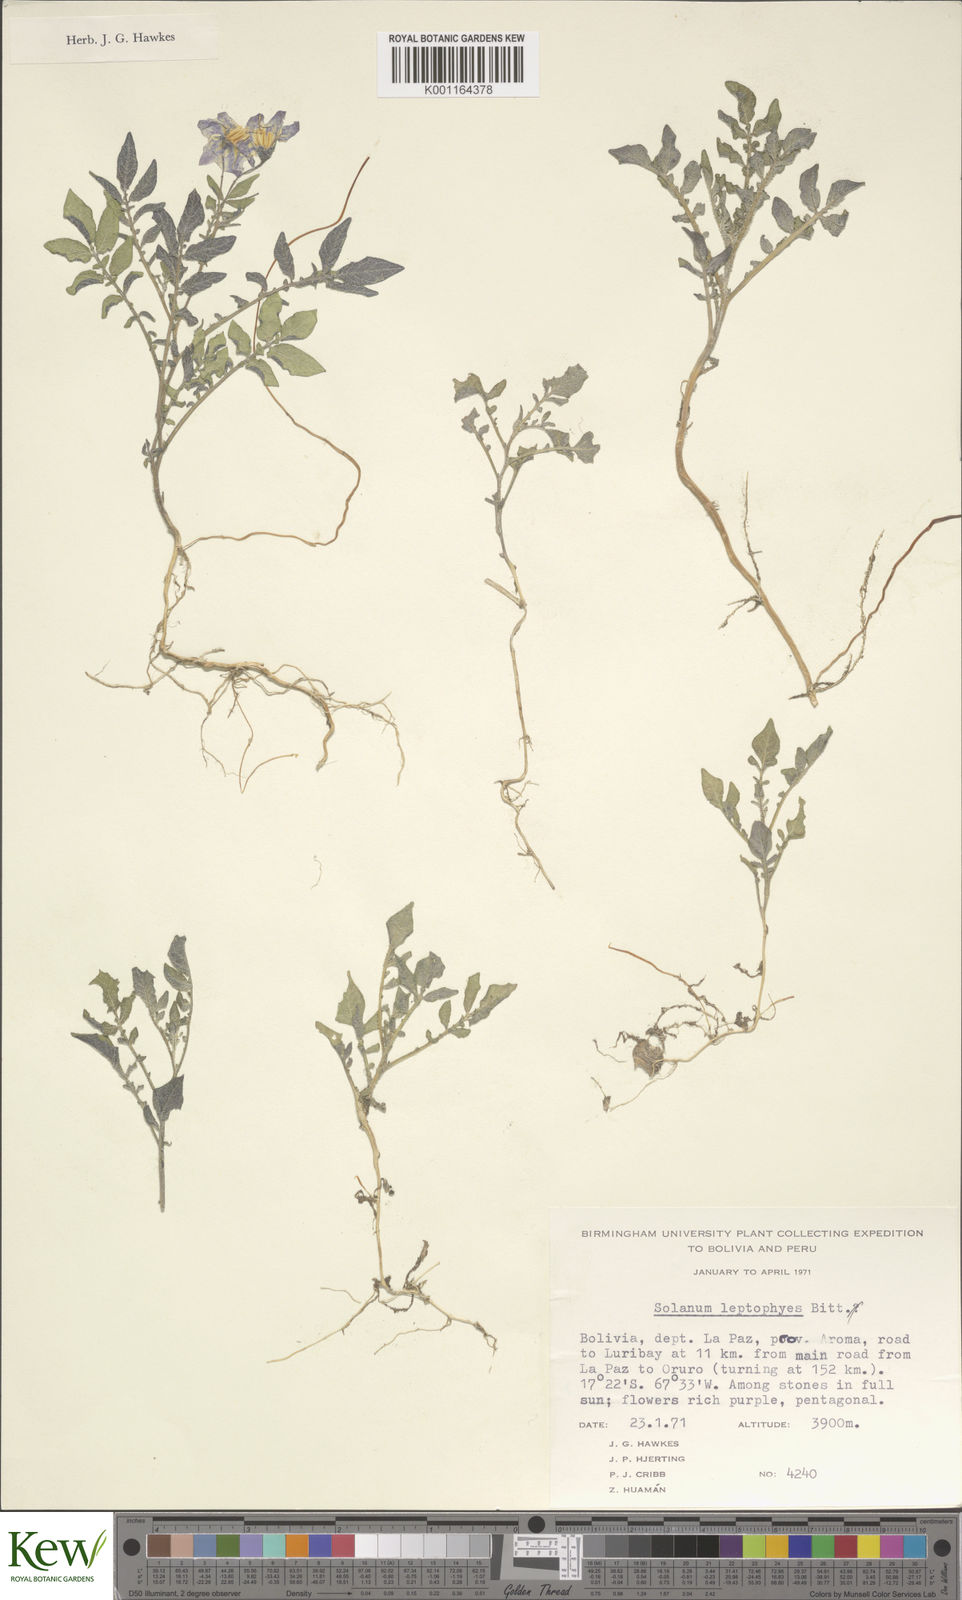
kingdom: Plantae
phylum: Tracheophyta
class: Magnoliopsida
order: Solanales
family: Solanaceae
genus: Solanum
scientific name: Solanum brevicaule
